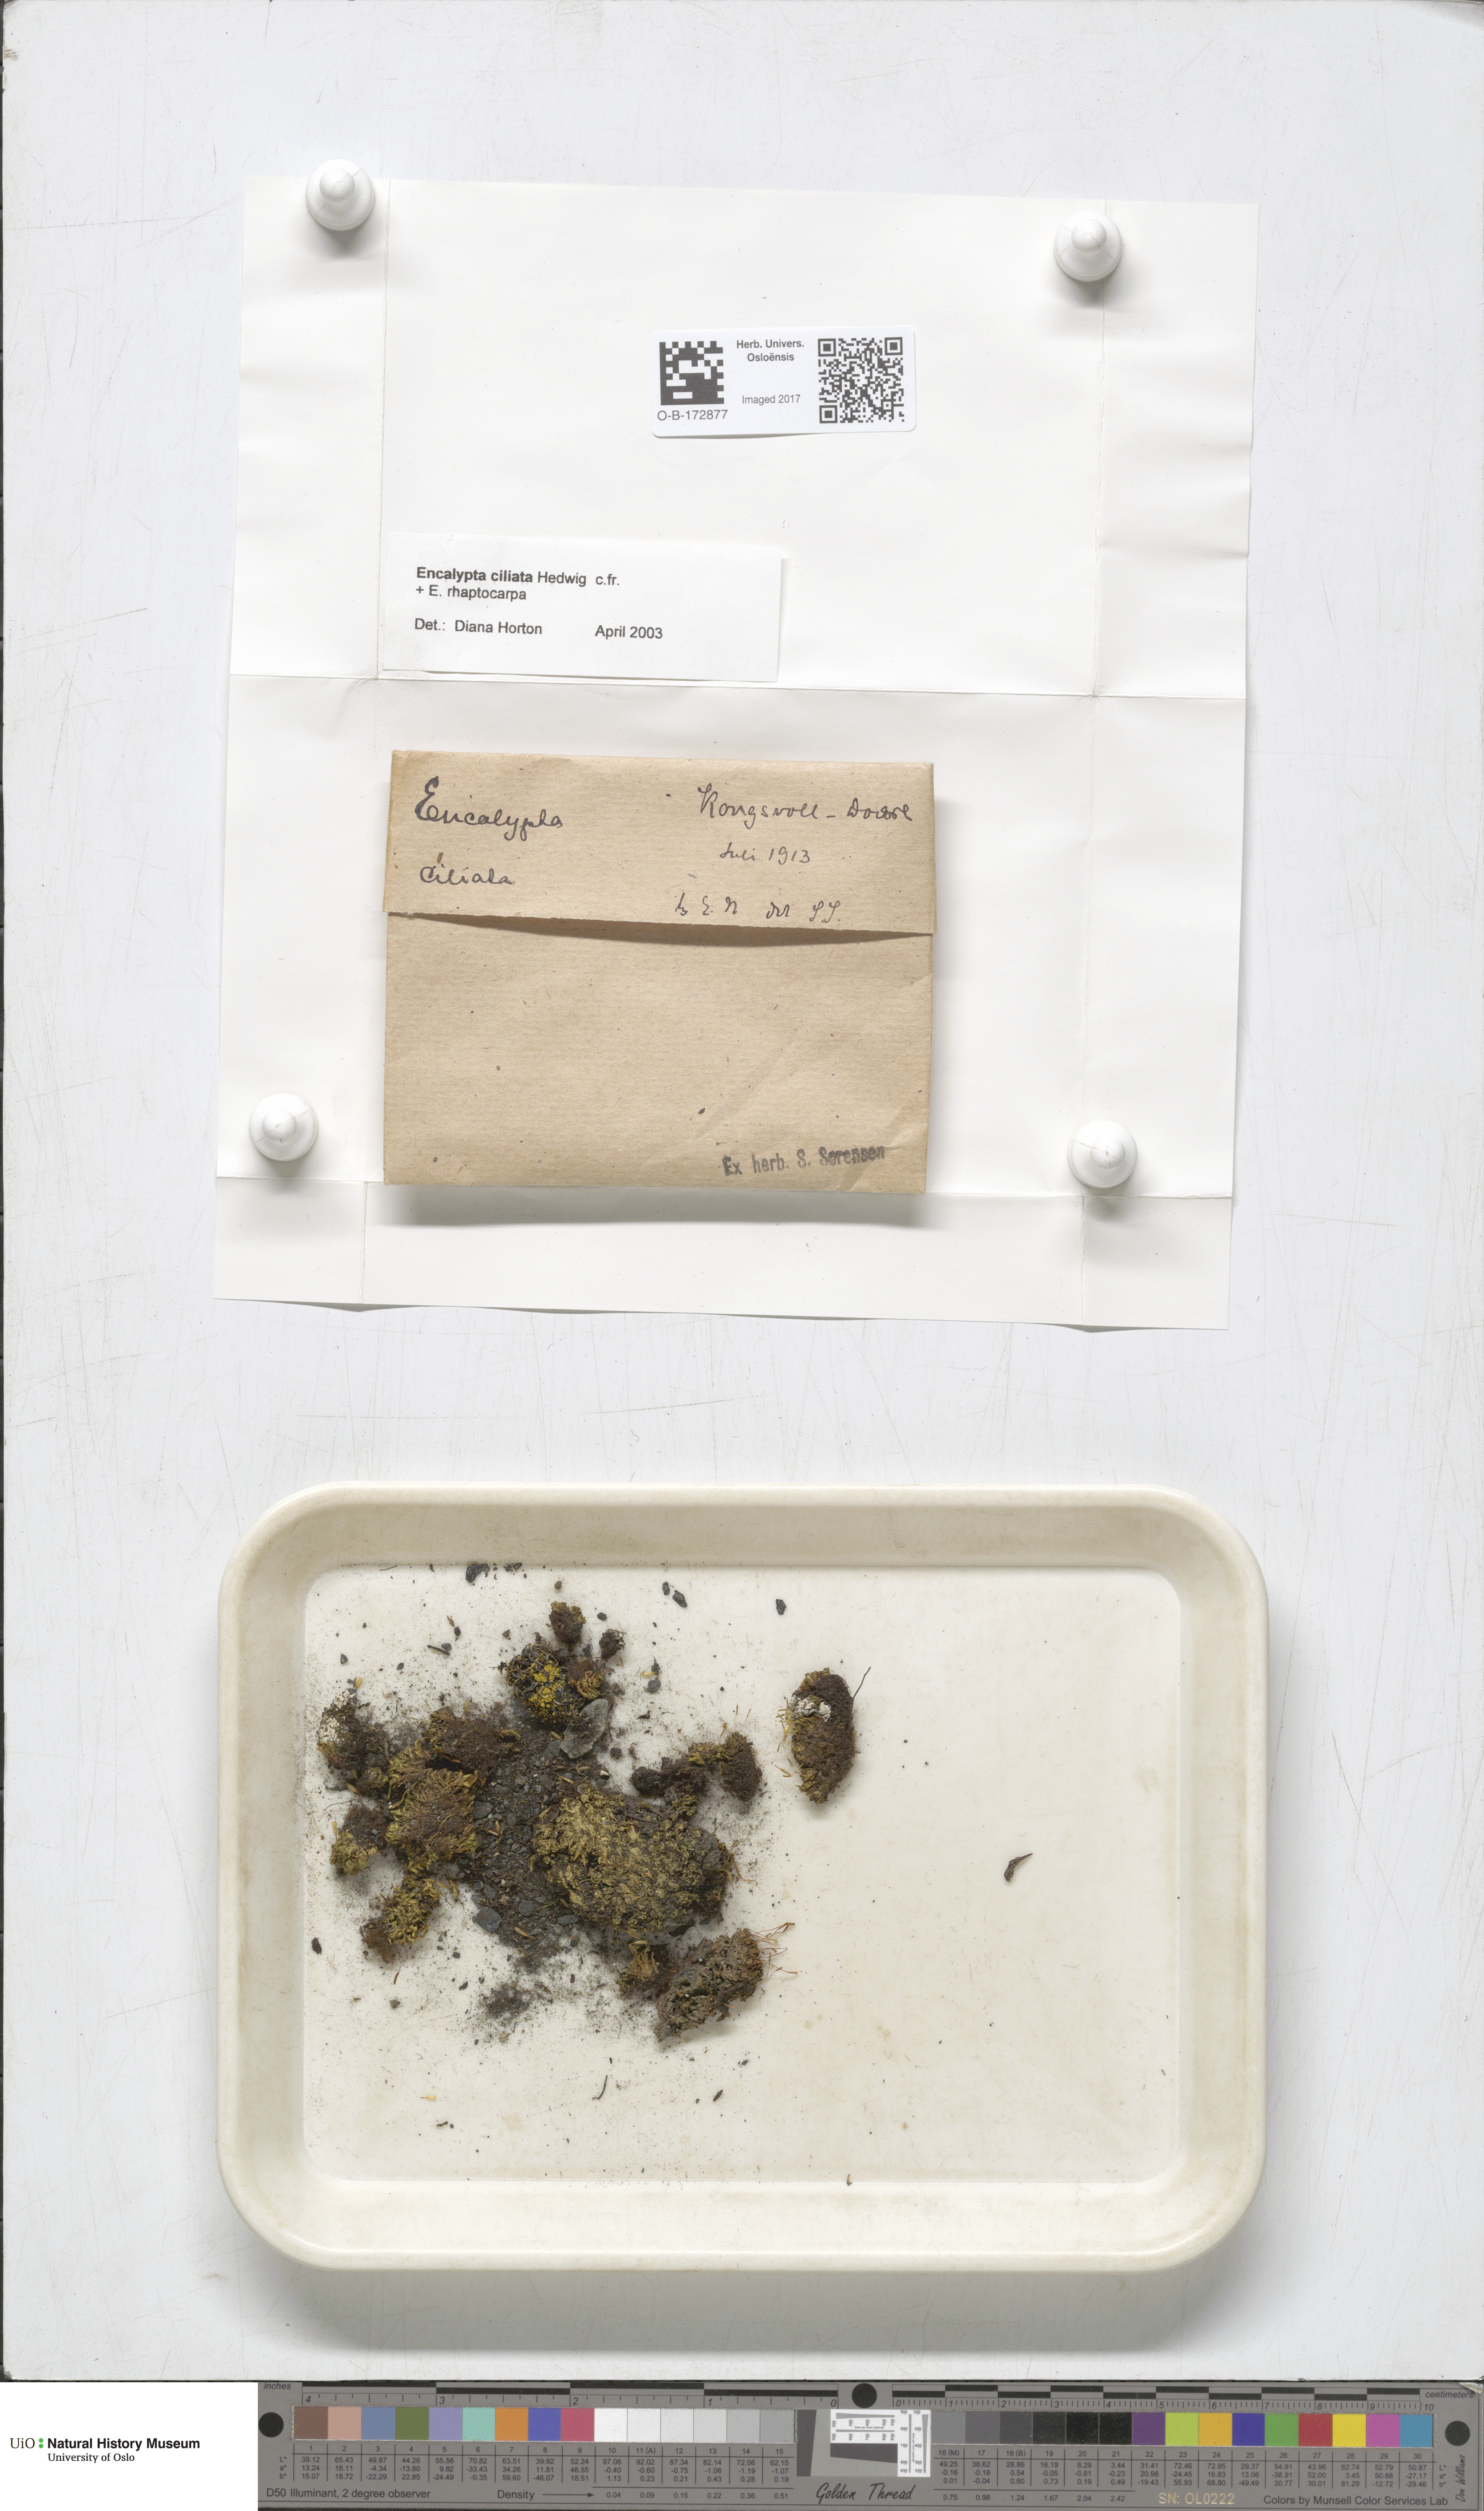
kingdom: Plantae
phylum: Bryophyta
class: Bryopsida
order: Encalyptales
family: Encalyptaceae
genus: Encalypta
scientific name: Encalypta ciliata
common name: Fringed extinguisher-moss
